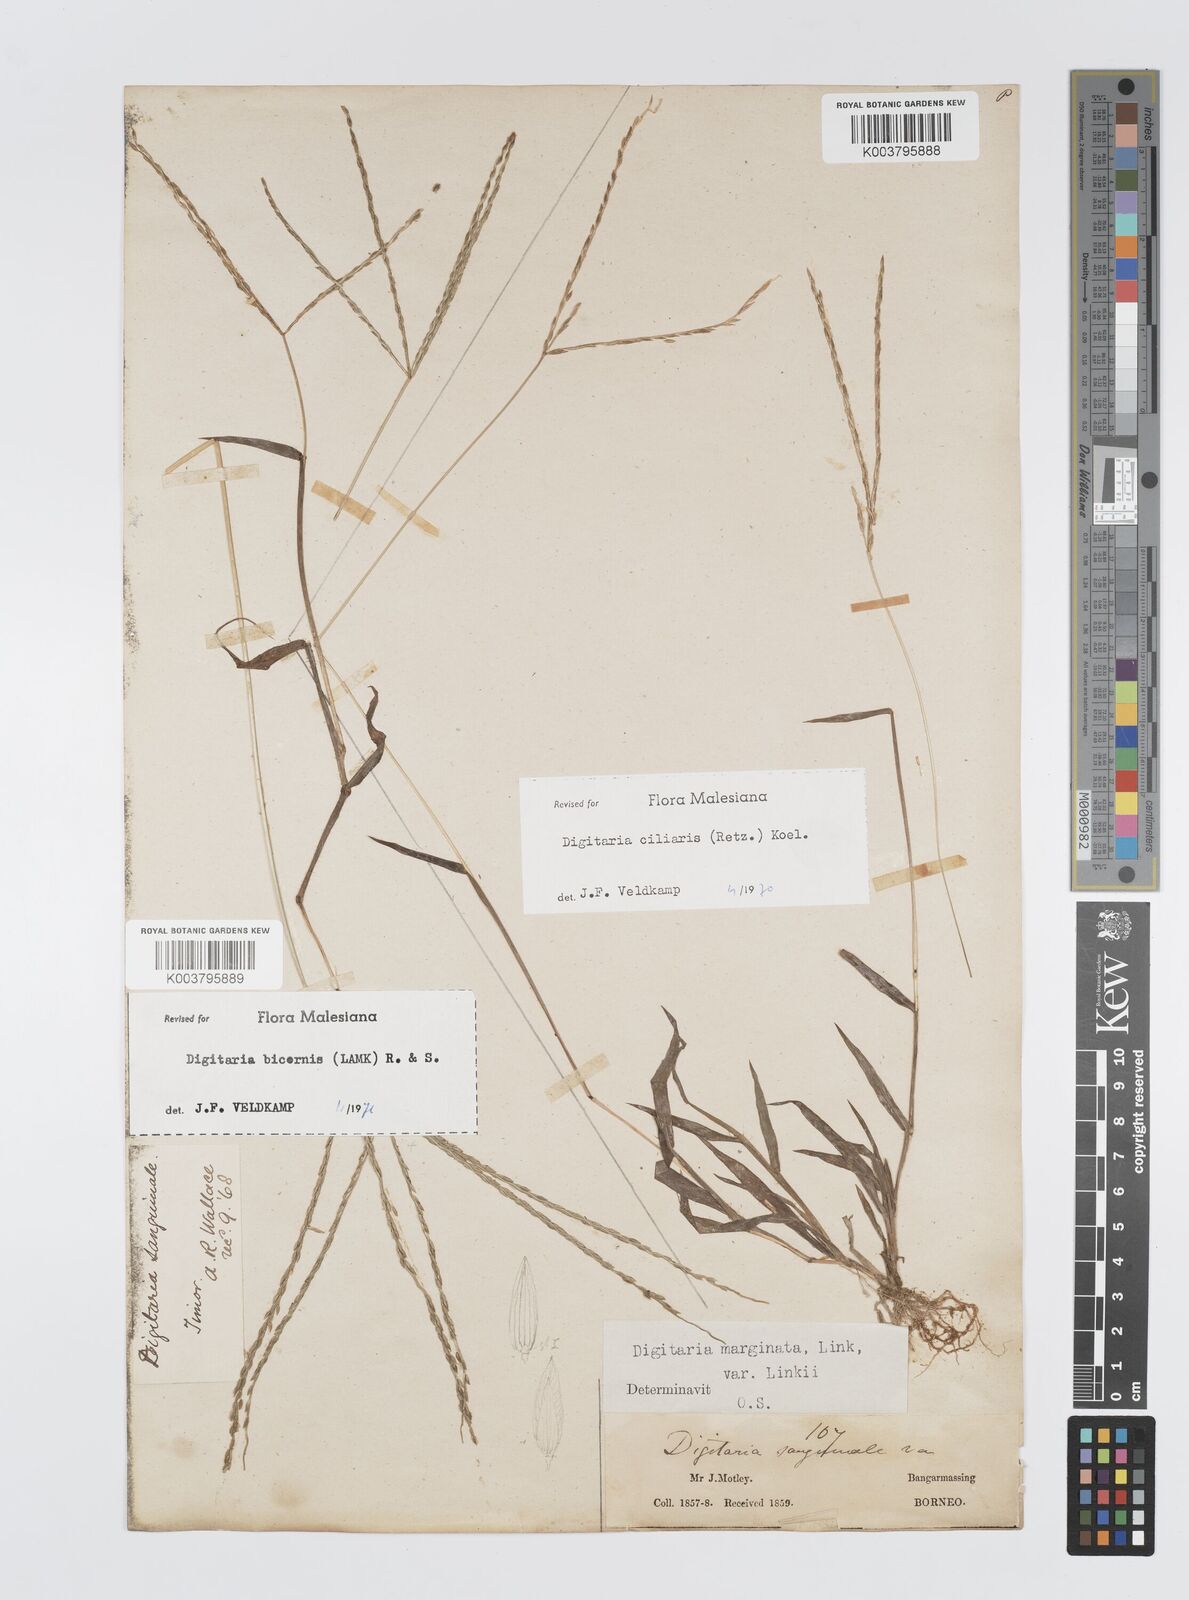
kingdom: Plantae
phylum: Tracheophyta
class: Liliopsida
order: Poales
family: Poaceae
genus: Digitaria
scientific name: Digitaria ciliaris
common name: Tropical finger-grass
